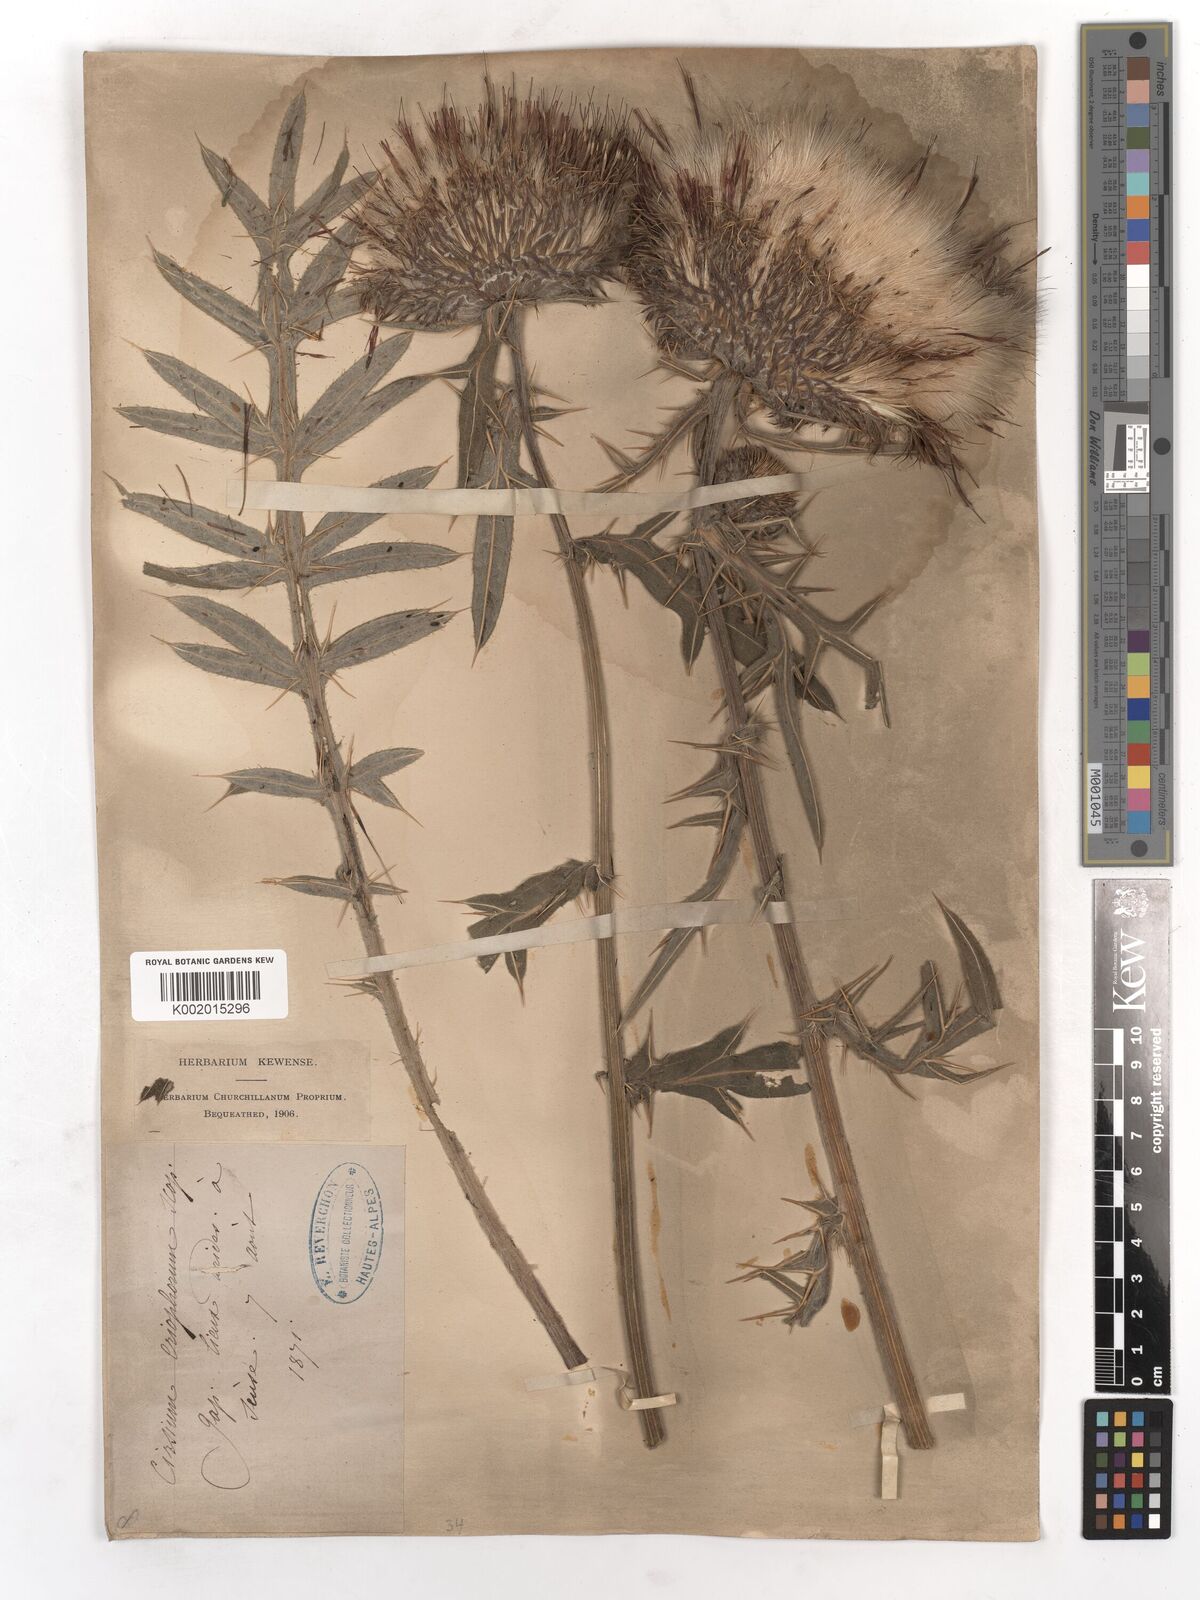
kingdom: Plantae
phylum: Tracheophyta
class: Magnoliopsida
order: Asterales
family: Asteraceae
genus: Lophiolepis
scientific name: Lophiolepis eriophora
